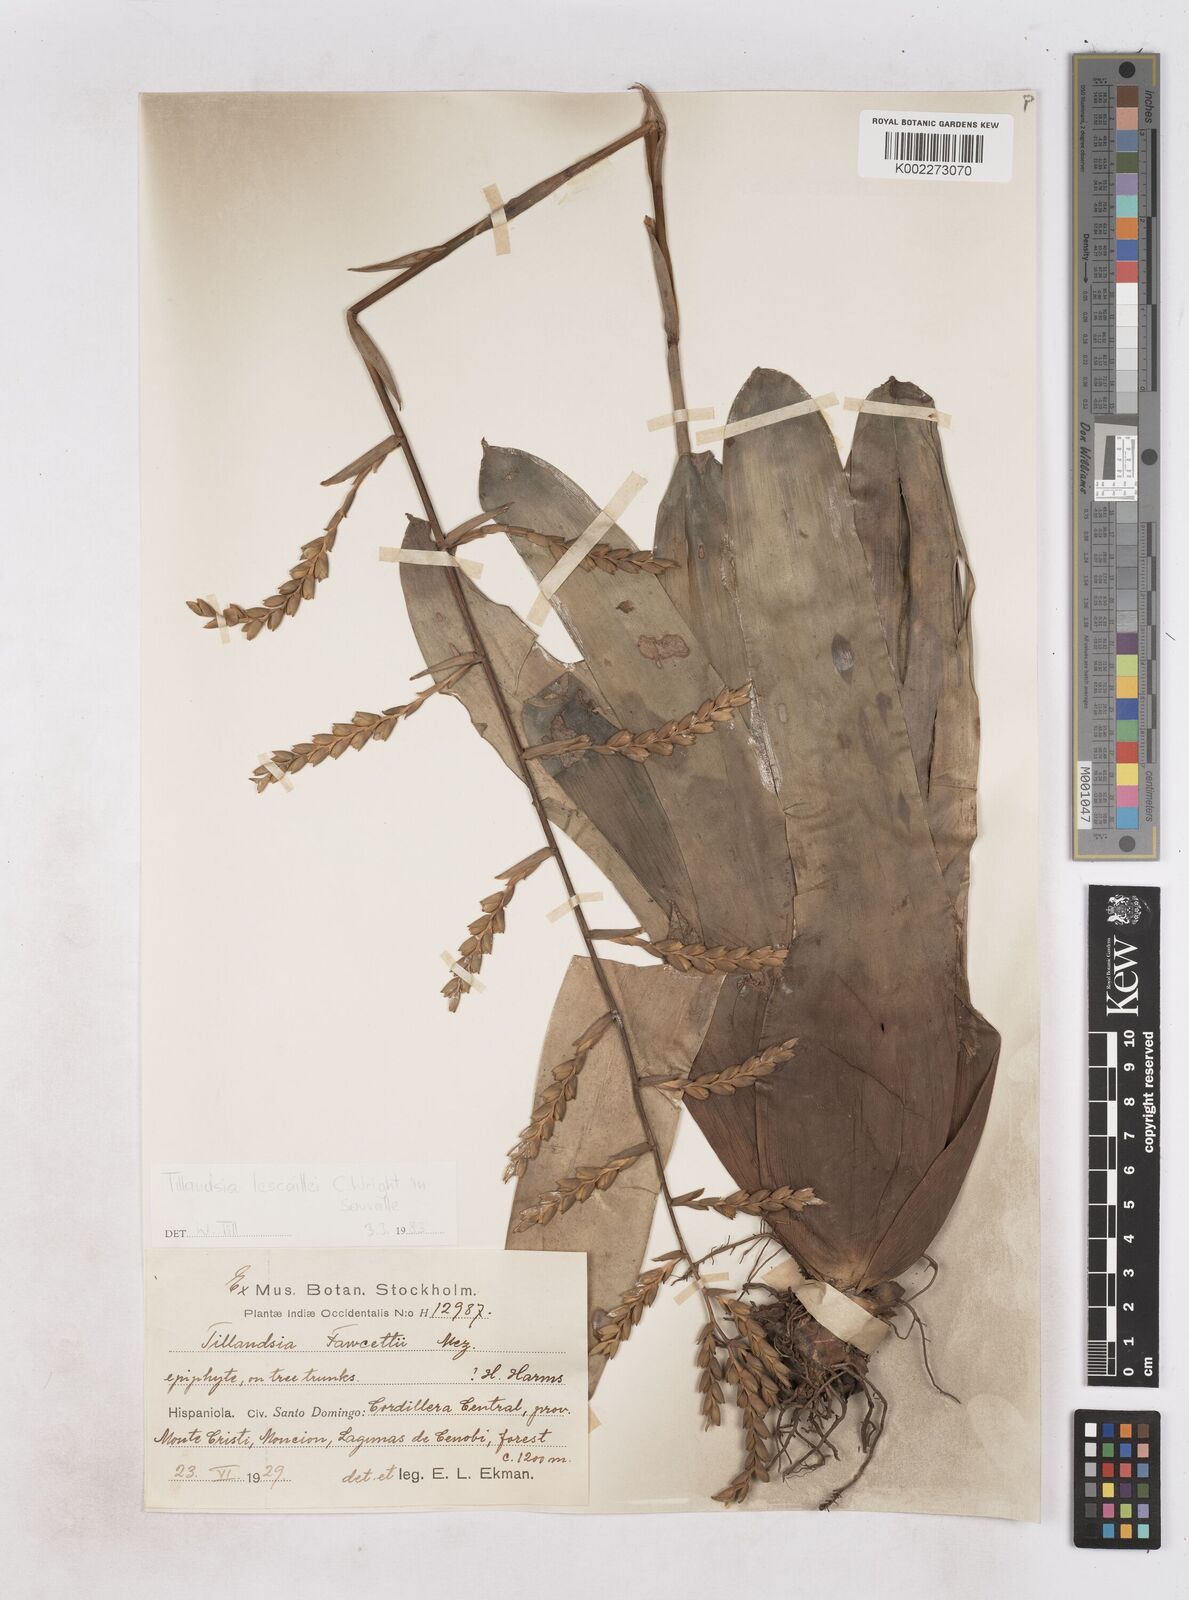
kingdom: Plantae
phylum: Tracheophyta
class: Liliopsida
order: Poales
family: Bromeliaceae
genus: Racinaea
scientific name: Racinaea lescaillei
